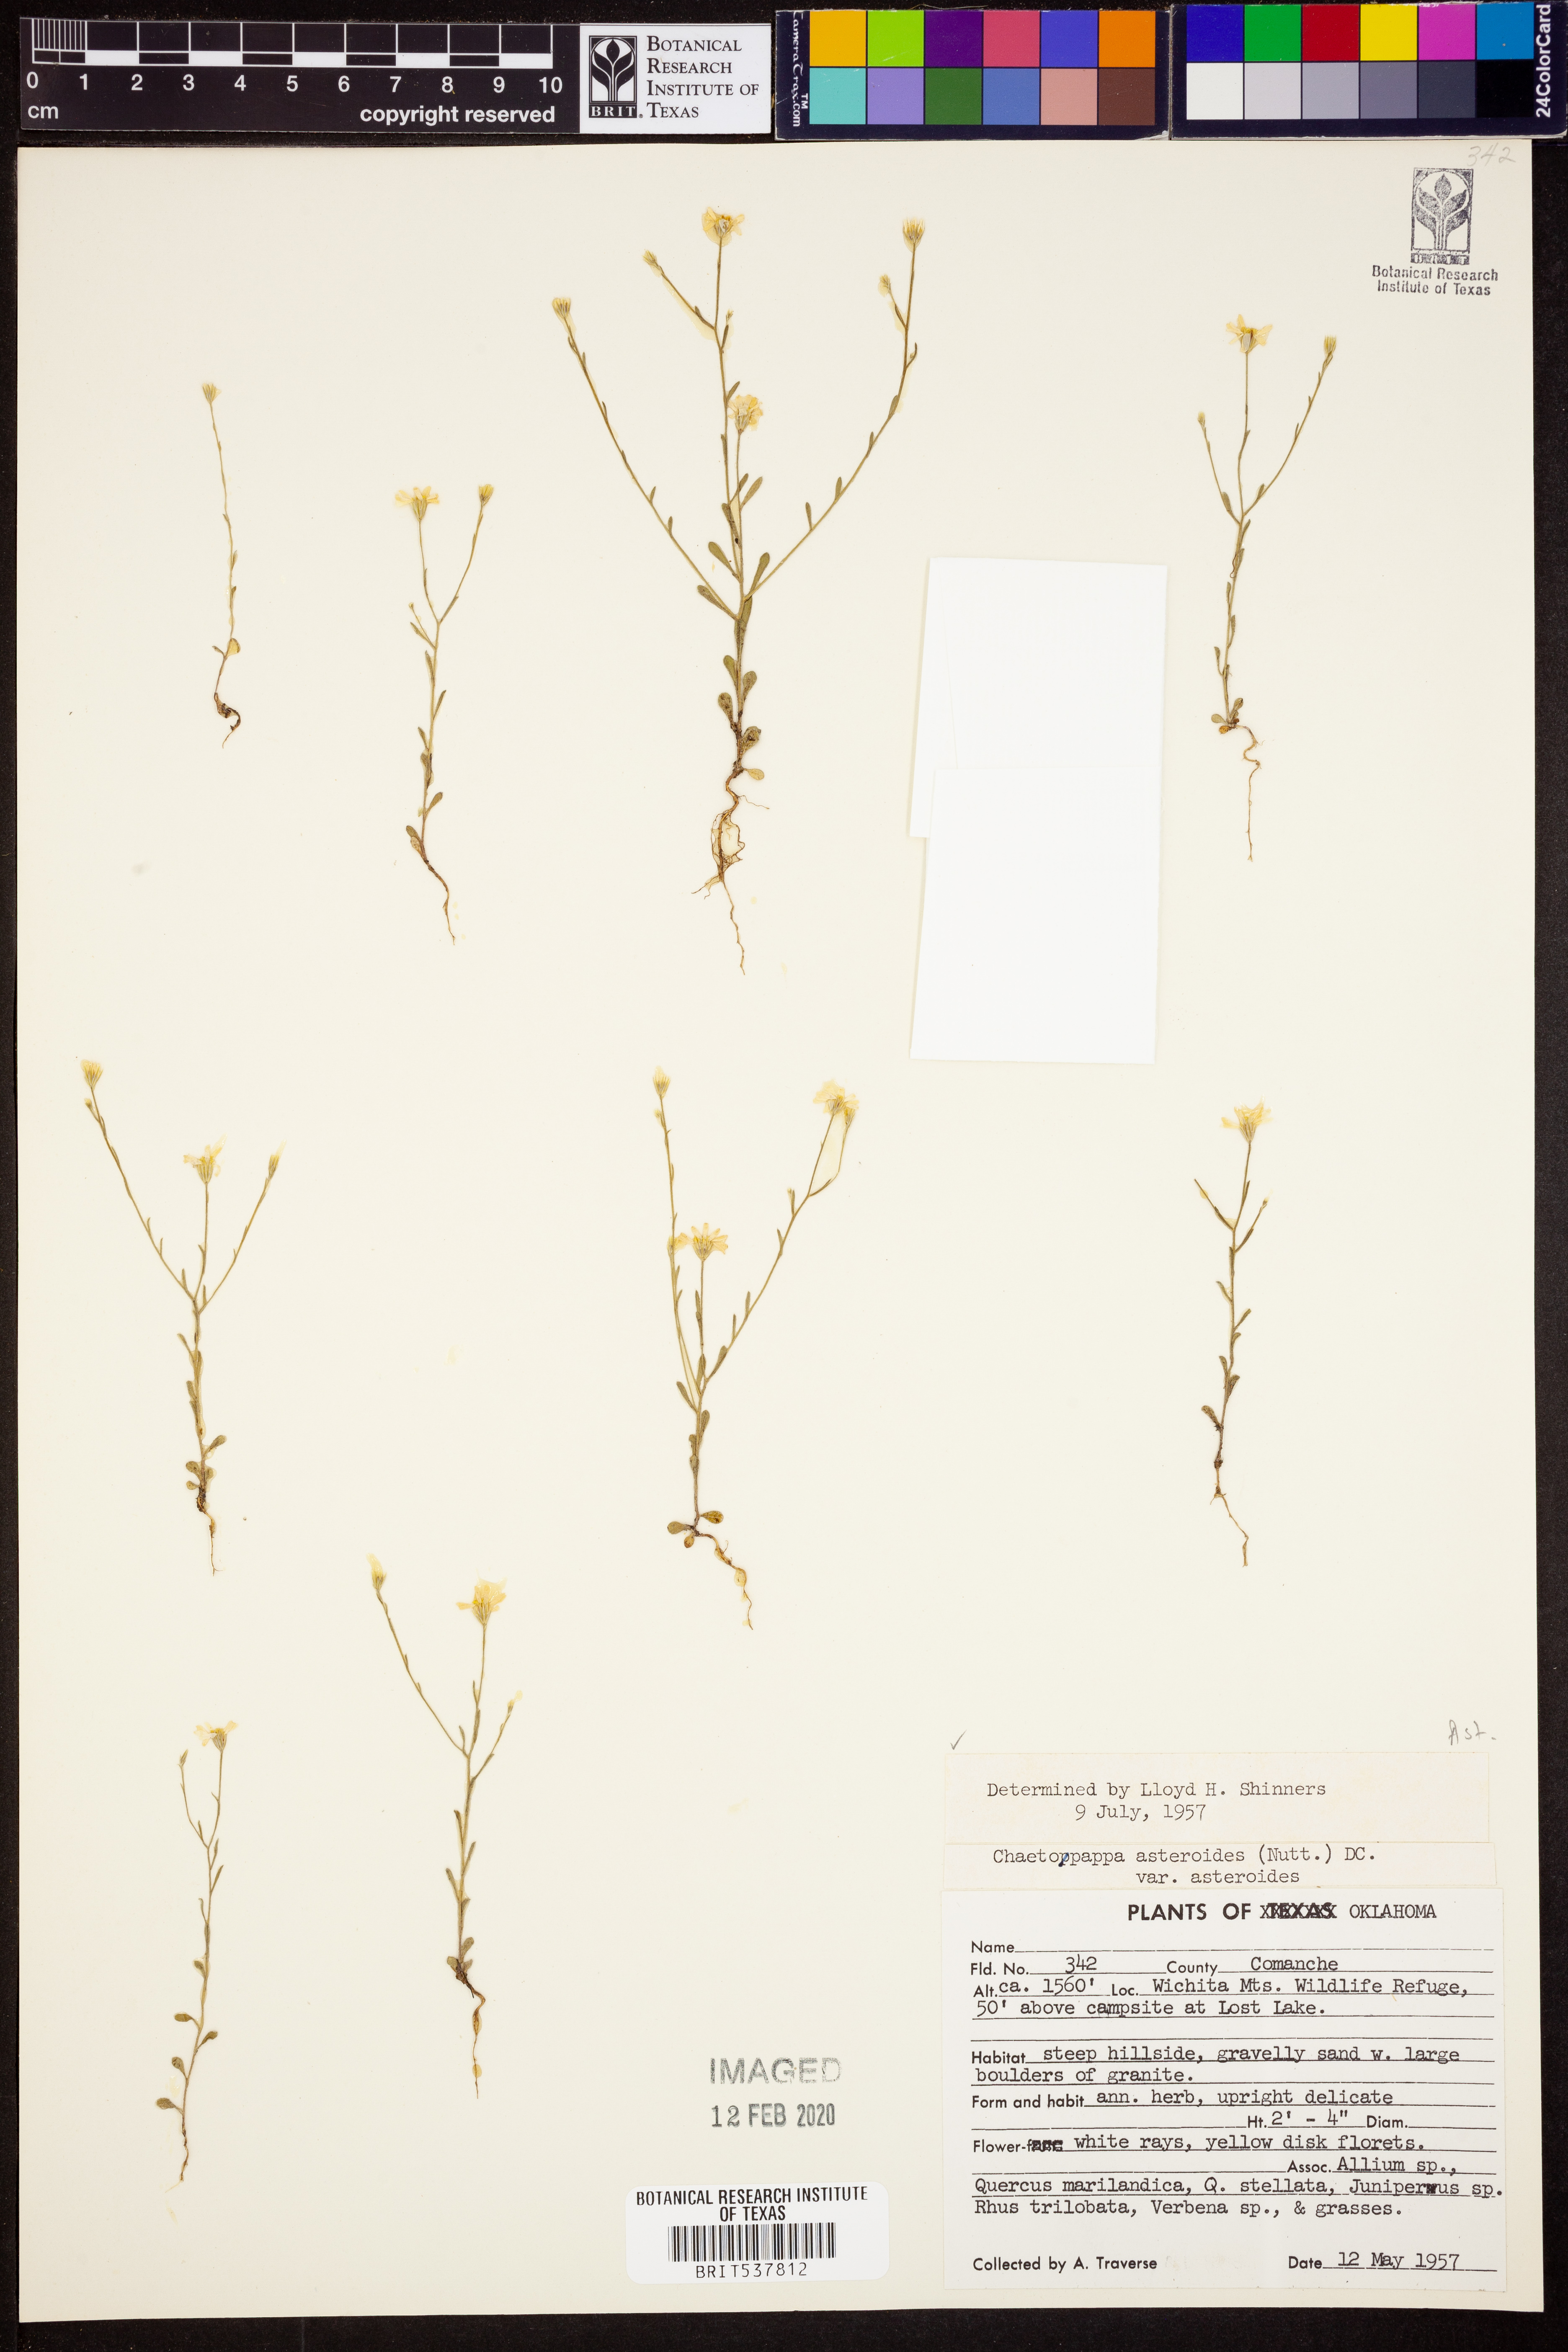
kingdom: Plantae
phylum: Tracheophyta
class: Magnoliopsida
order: Asterales
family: Asteraceae
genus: Chaetopappa
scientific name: Chaetopappa asteroides
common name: Tiny lazy daisy
